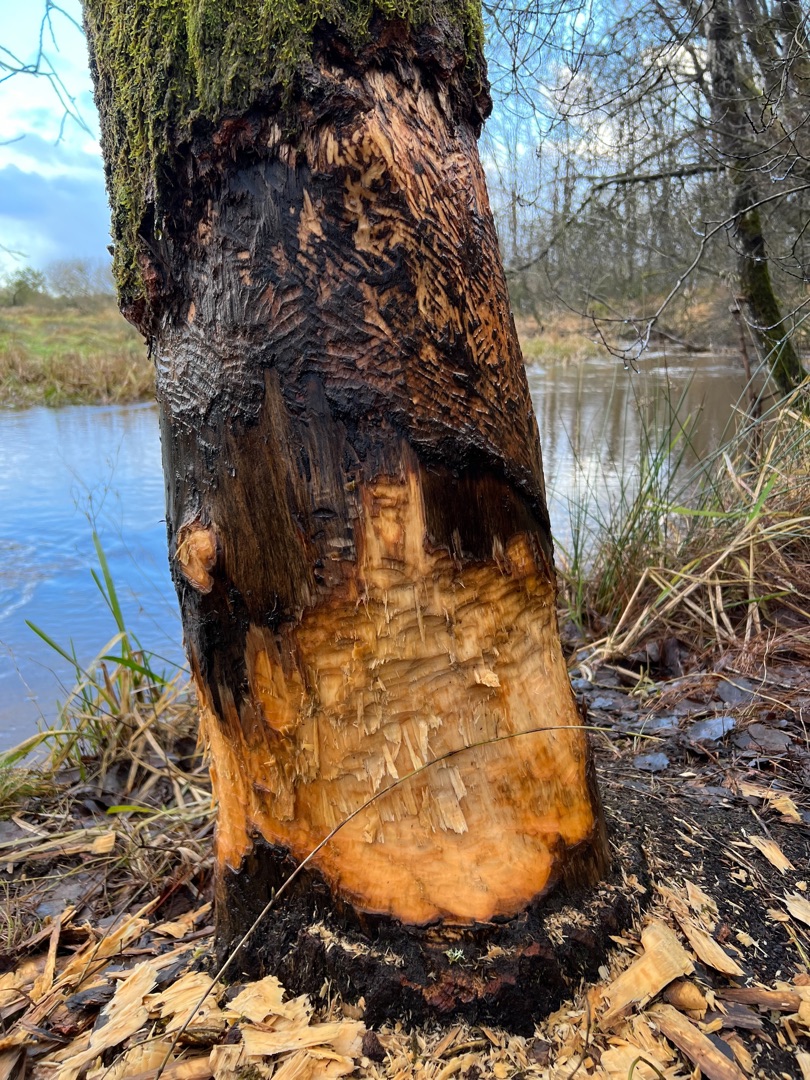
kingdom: Animalia
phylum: Chordata
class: Mammalia
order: Rodentia
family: Castoridae
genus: Castor
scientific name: Castor fiber
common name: Bæver
